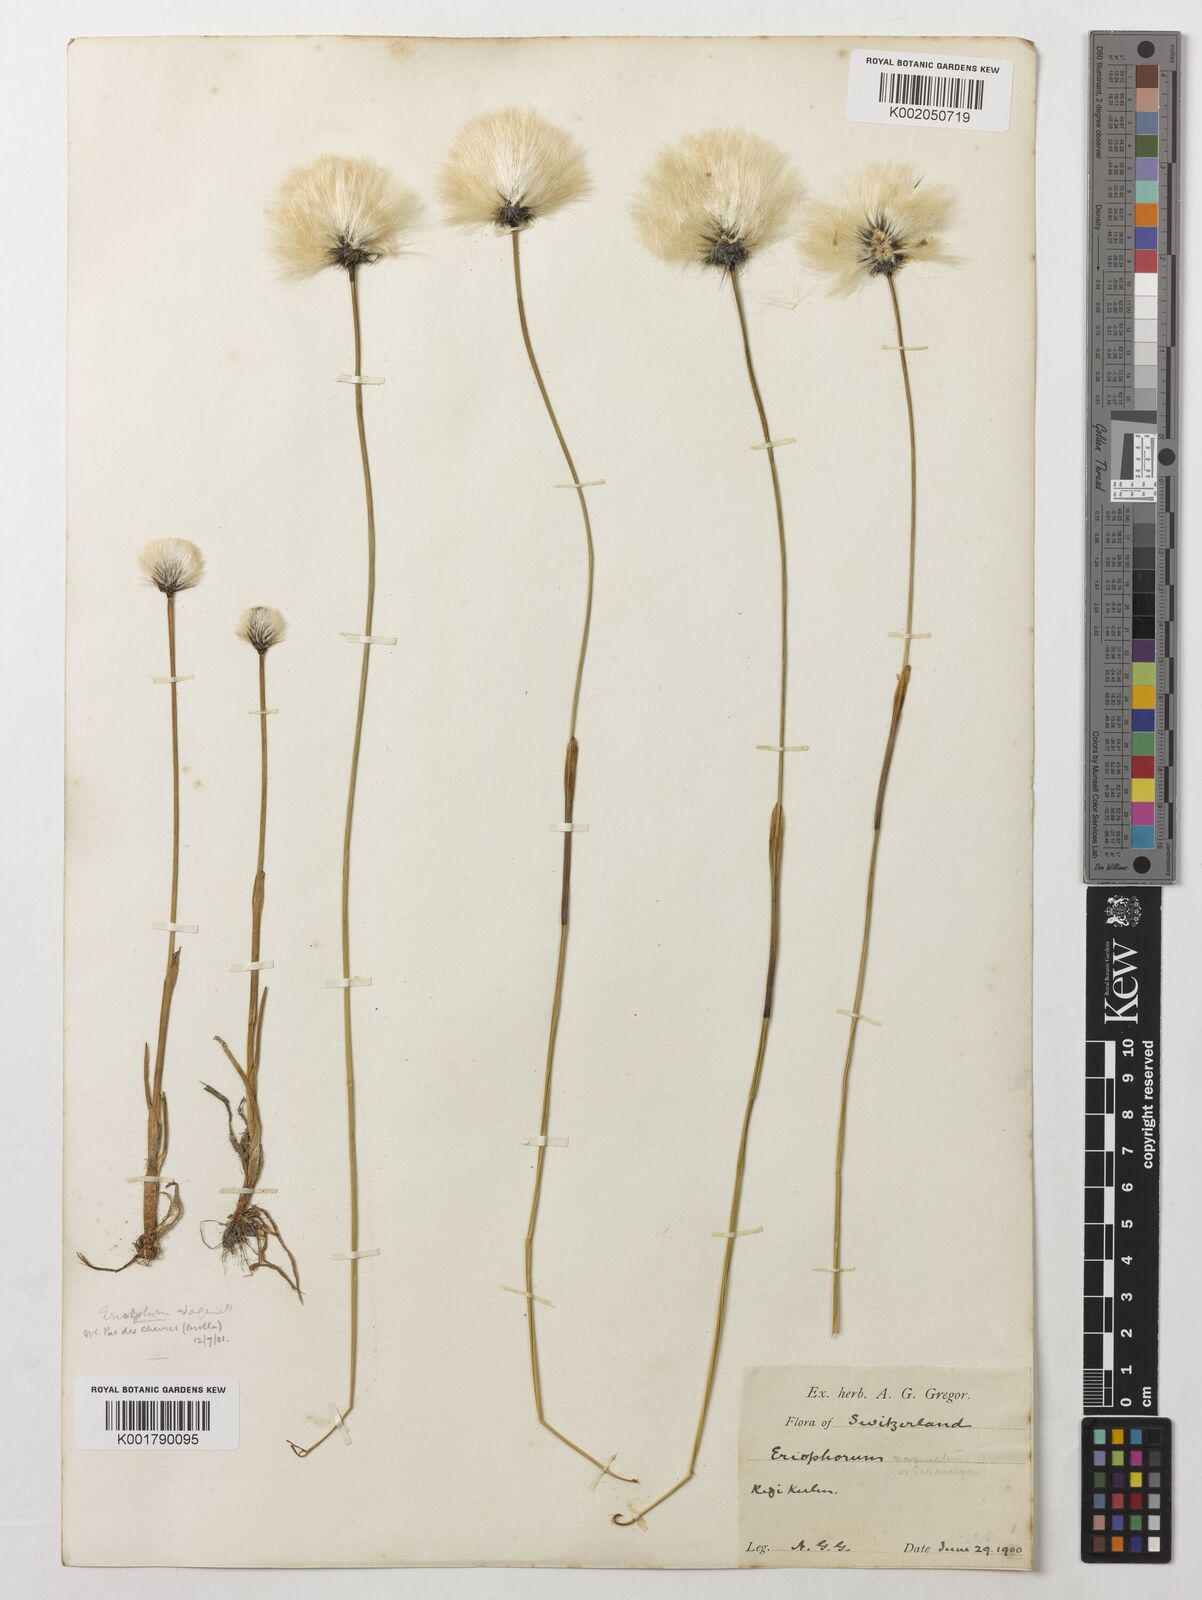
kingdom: Plantae
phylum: Tracheophyta
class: Liliopsida
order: Poales
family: Cyperaceae
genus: Eriophorum
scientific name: Eriophorum vaginatum
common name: Hare's-tail cottongrass
